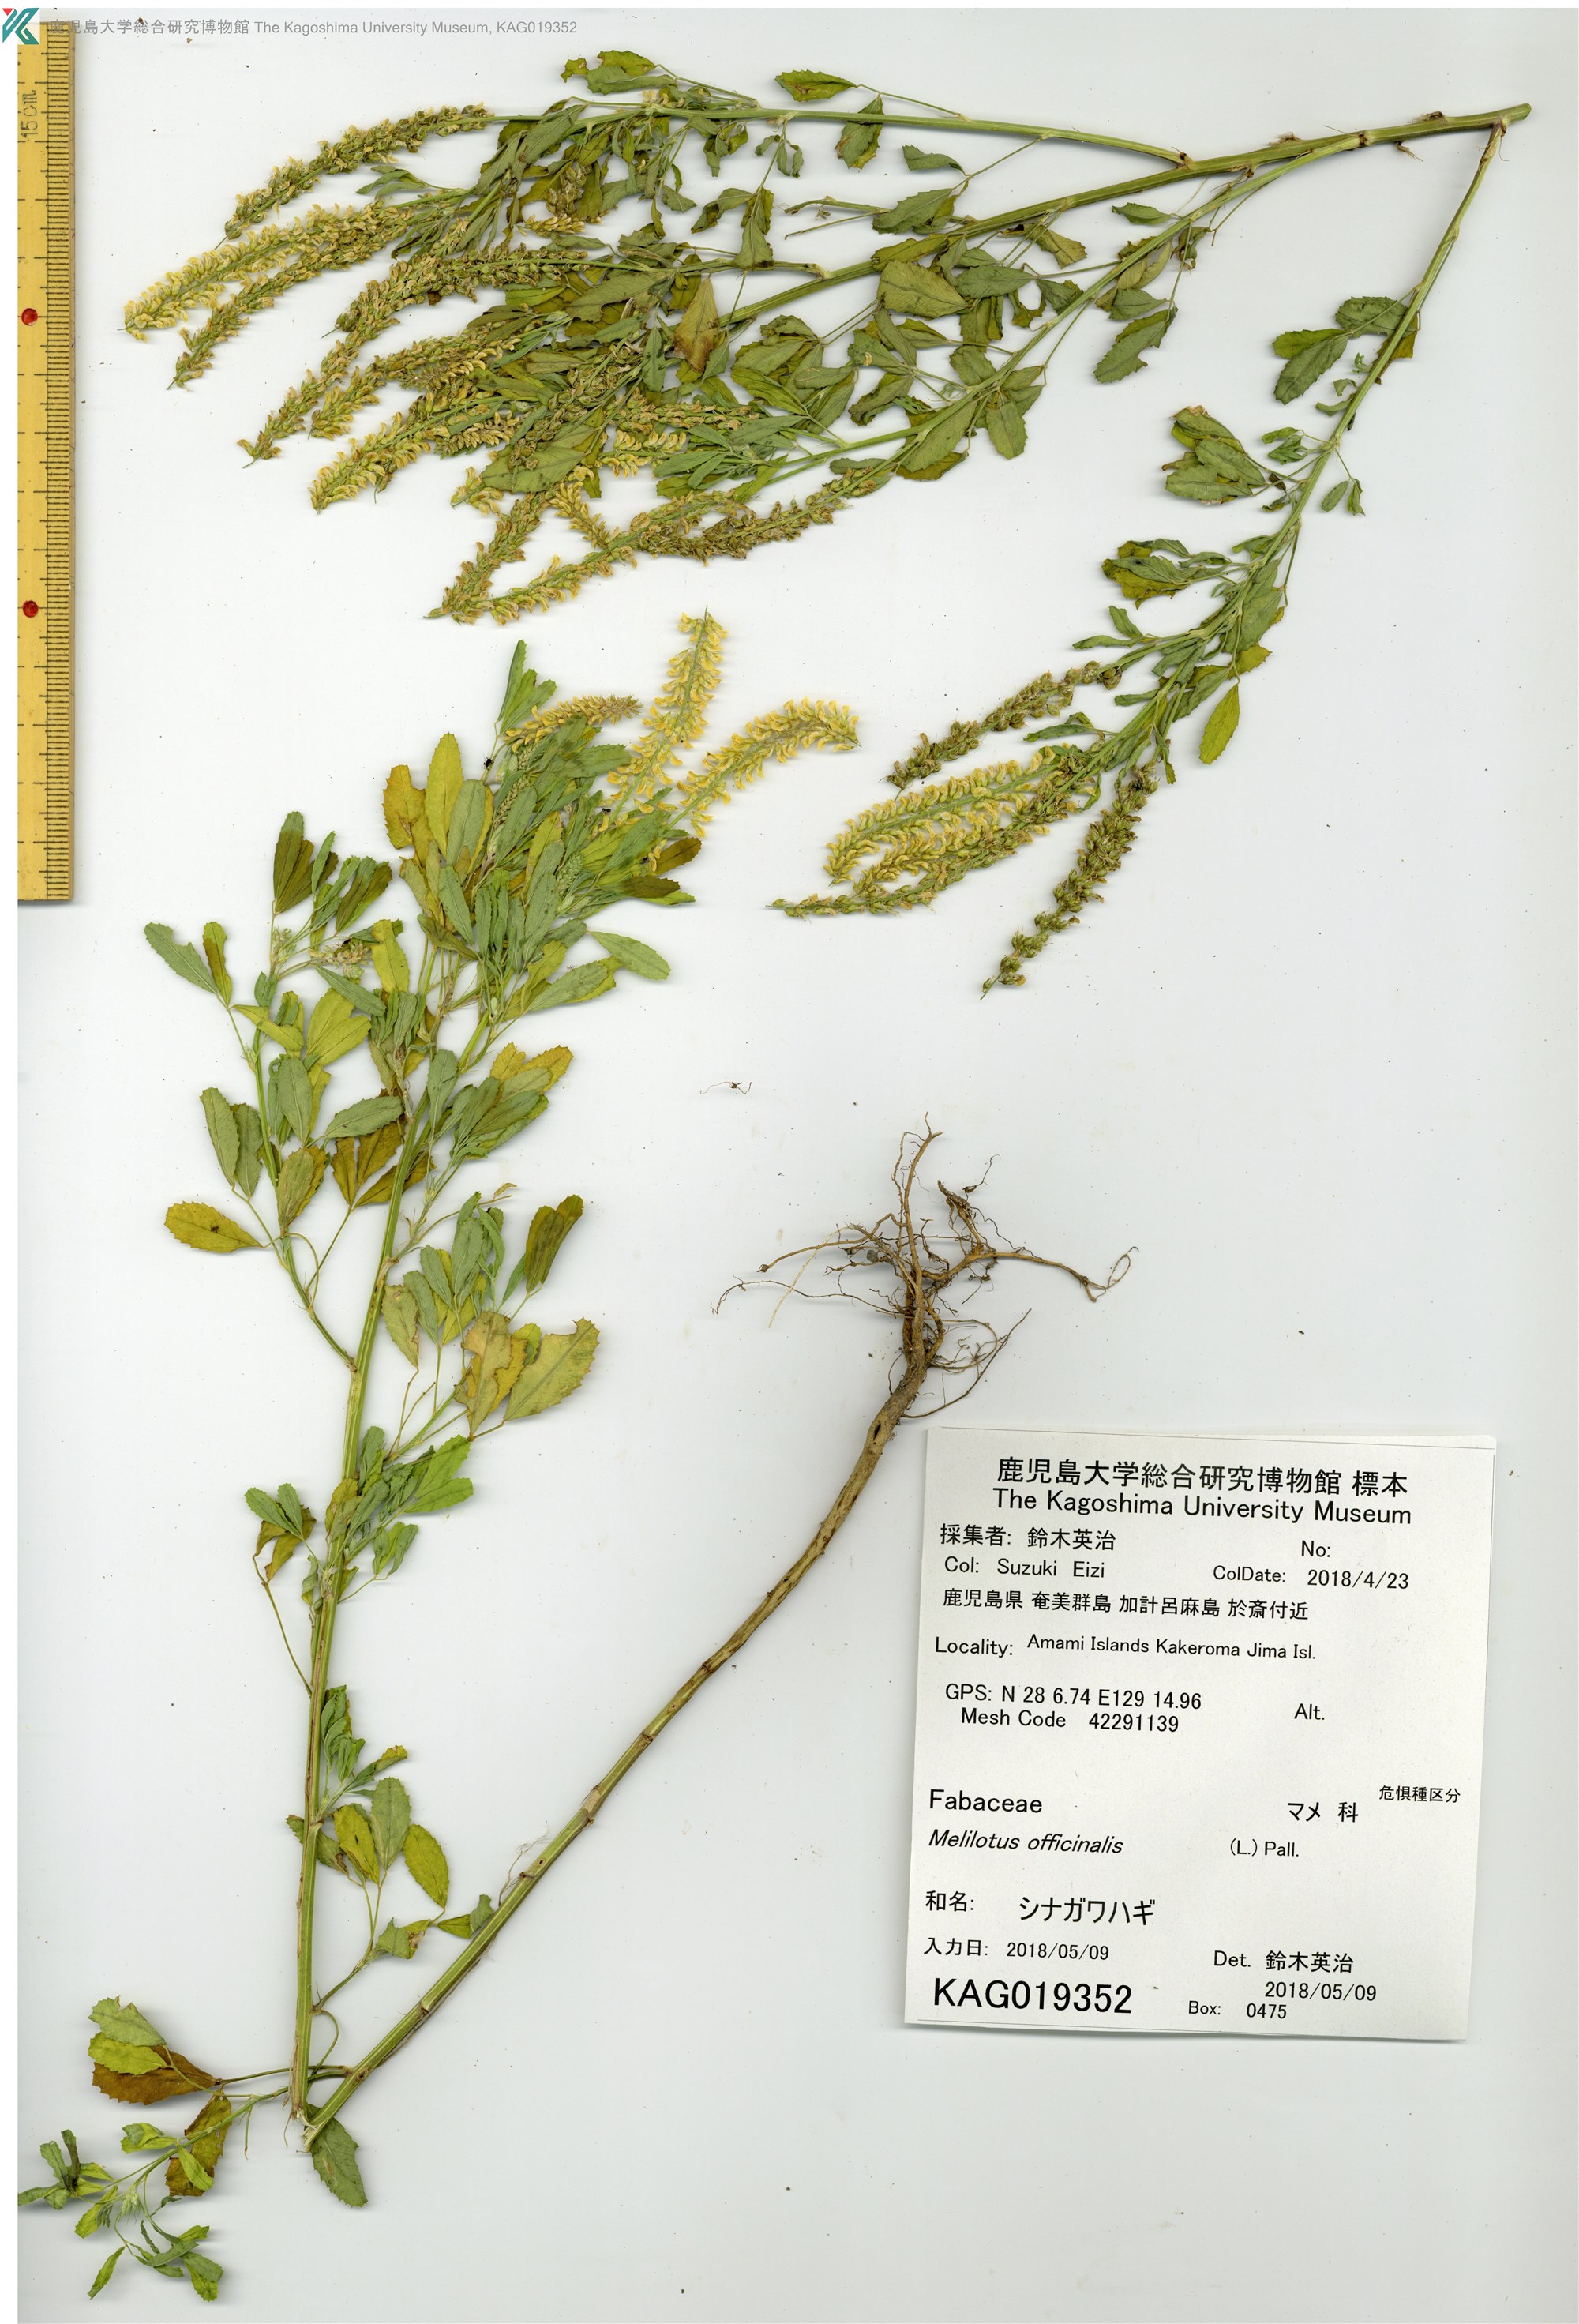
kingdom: Plantae
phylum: Tracheophyta
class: Magnoliopsida
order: Fabales
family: Fabaceae
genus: Melilotus
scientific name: Melilotus suaveolens
